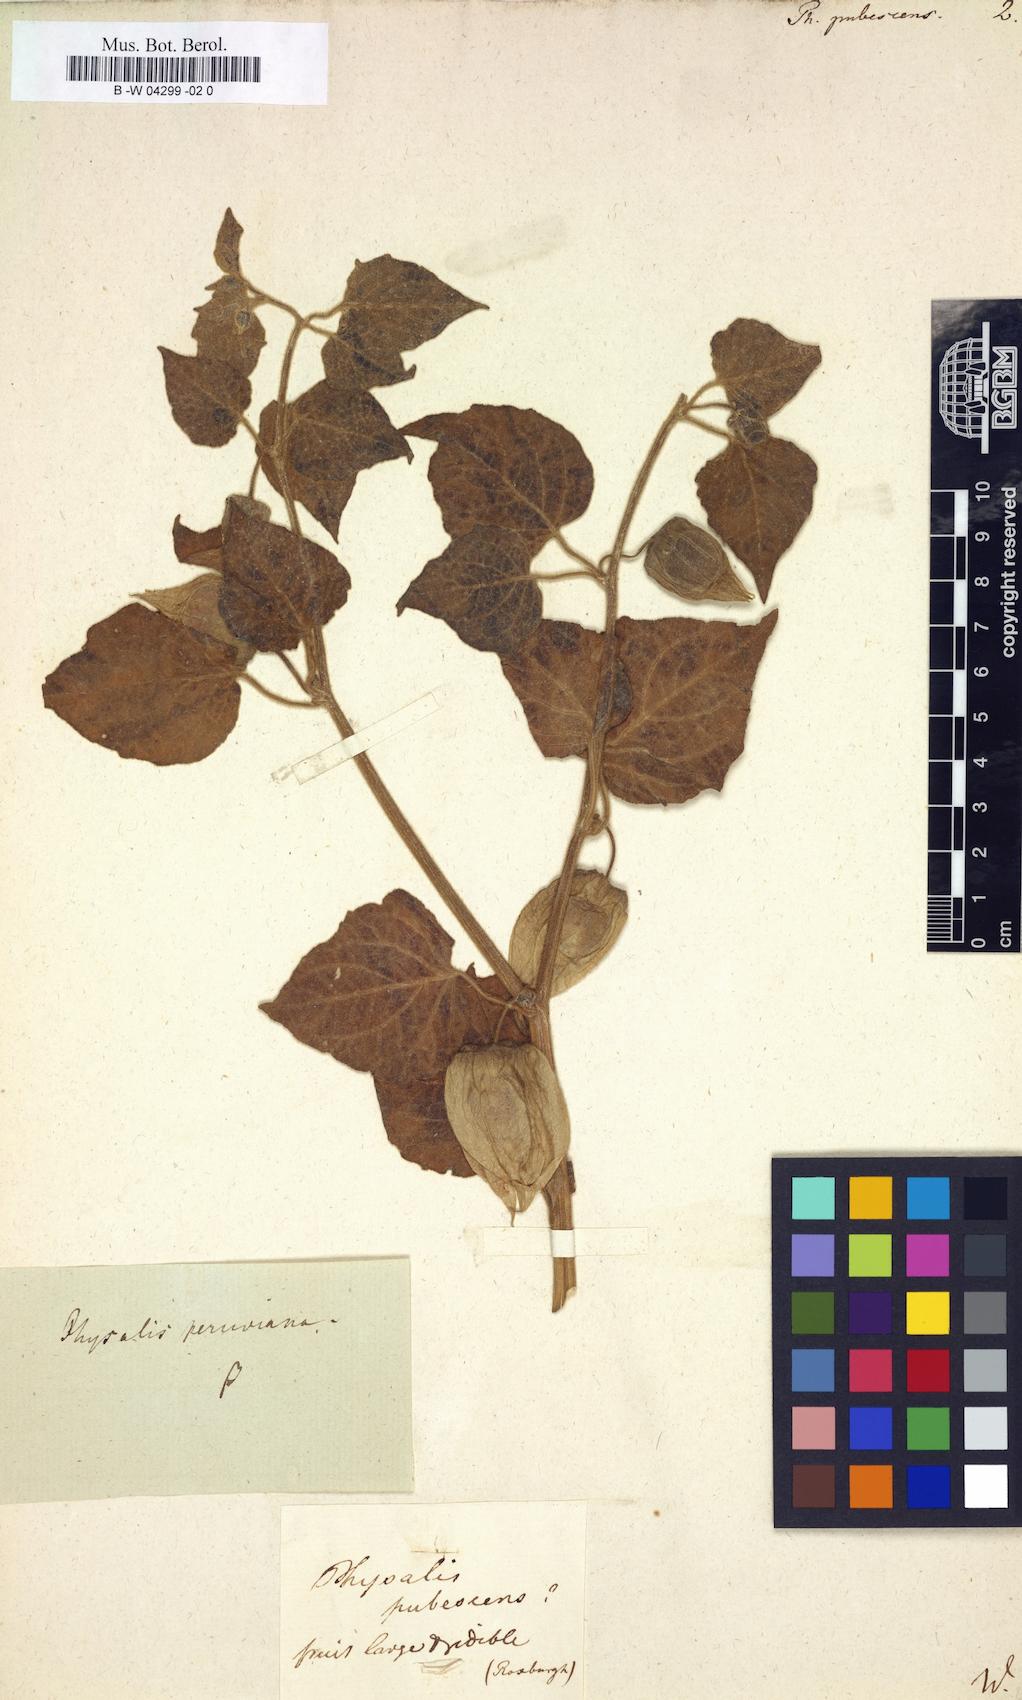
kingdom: Plantae
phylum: Tracheophyta
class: Magnoliopsida
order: Solanales
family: Solanaceae
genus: Physalis
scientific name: Physalis pubescens
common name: Downy ground-cherry
